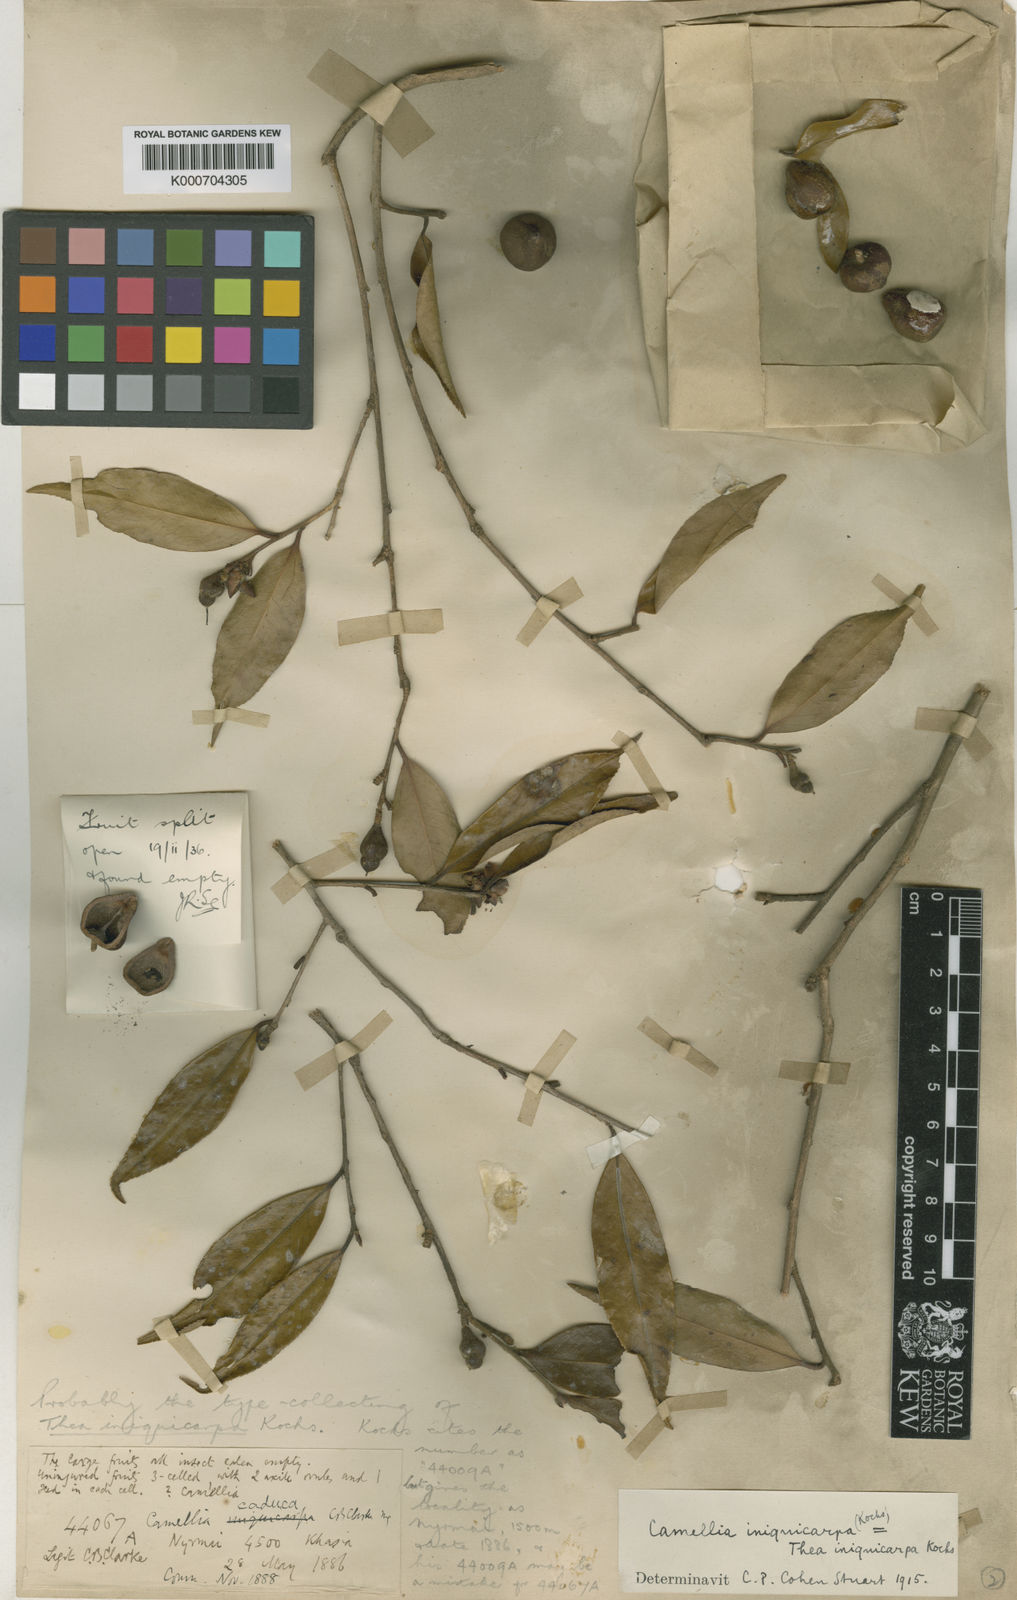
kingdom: Plantae
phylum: Tracheophyta
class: Magnoliopsida
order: Ericales
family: Theaceae
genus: Camellia
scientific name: Camellia kissii
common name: Nepal camellia
